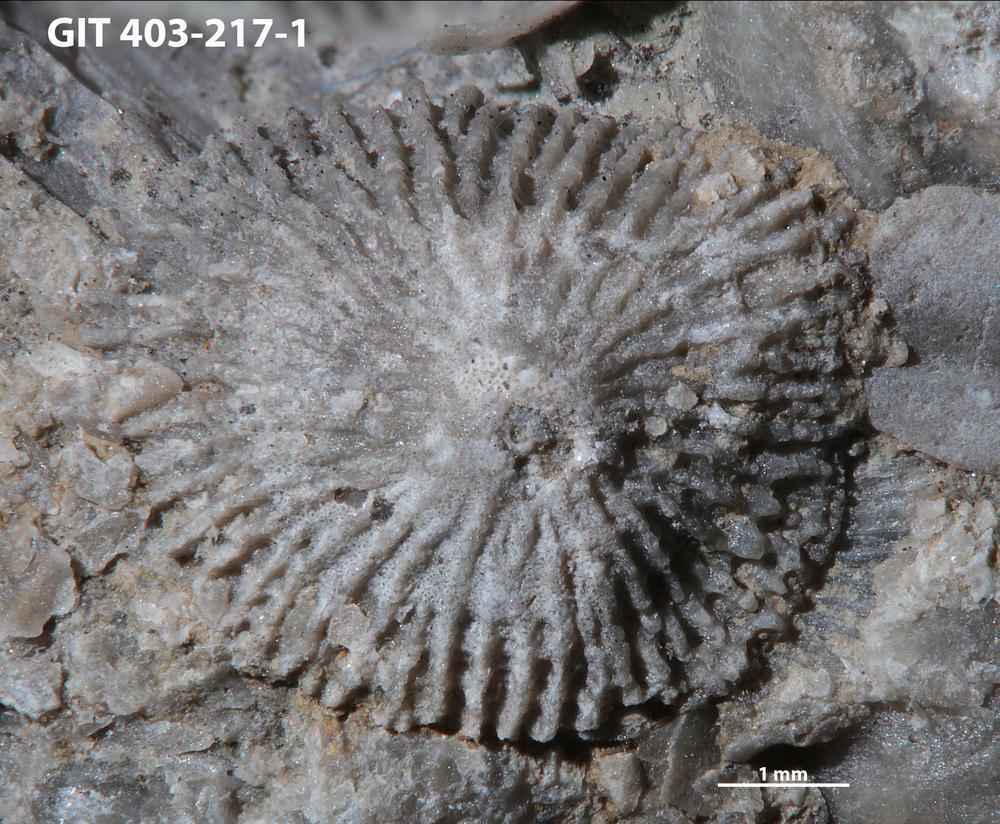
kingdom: Animalia
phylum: Brachiopoda
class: Craniata
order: Craniida
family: Craniidae
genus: Philhedra
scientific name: Philhedra
